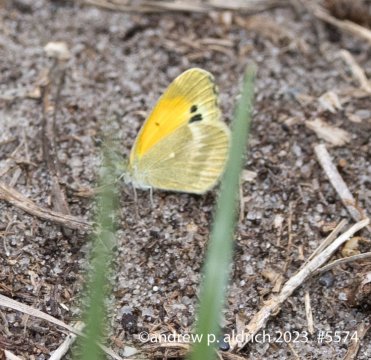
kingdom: Animalia
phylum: Arthropoda
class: Insecta
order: Lepidoptera
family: Pieridae
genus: Nathalis
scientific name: Nathalis iole
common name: Dainty Sulphur
